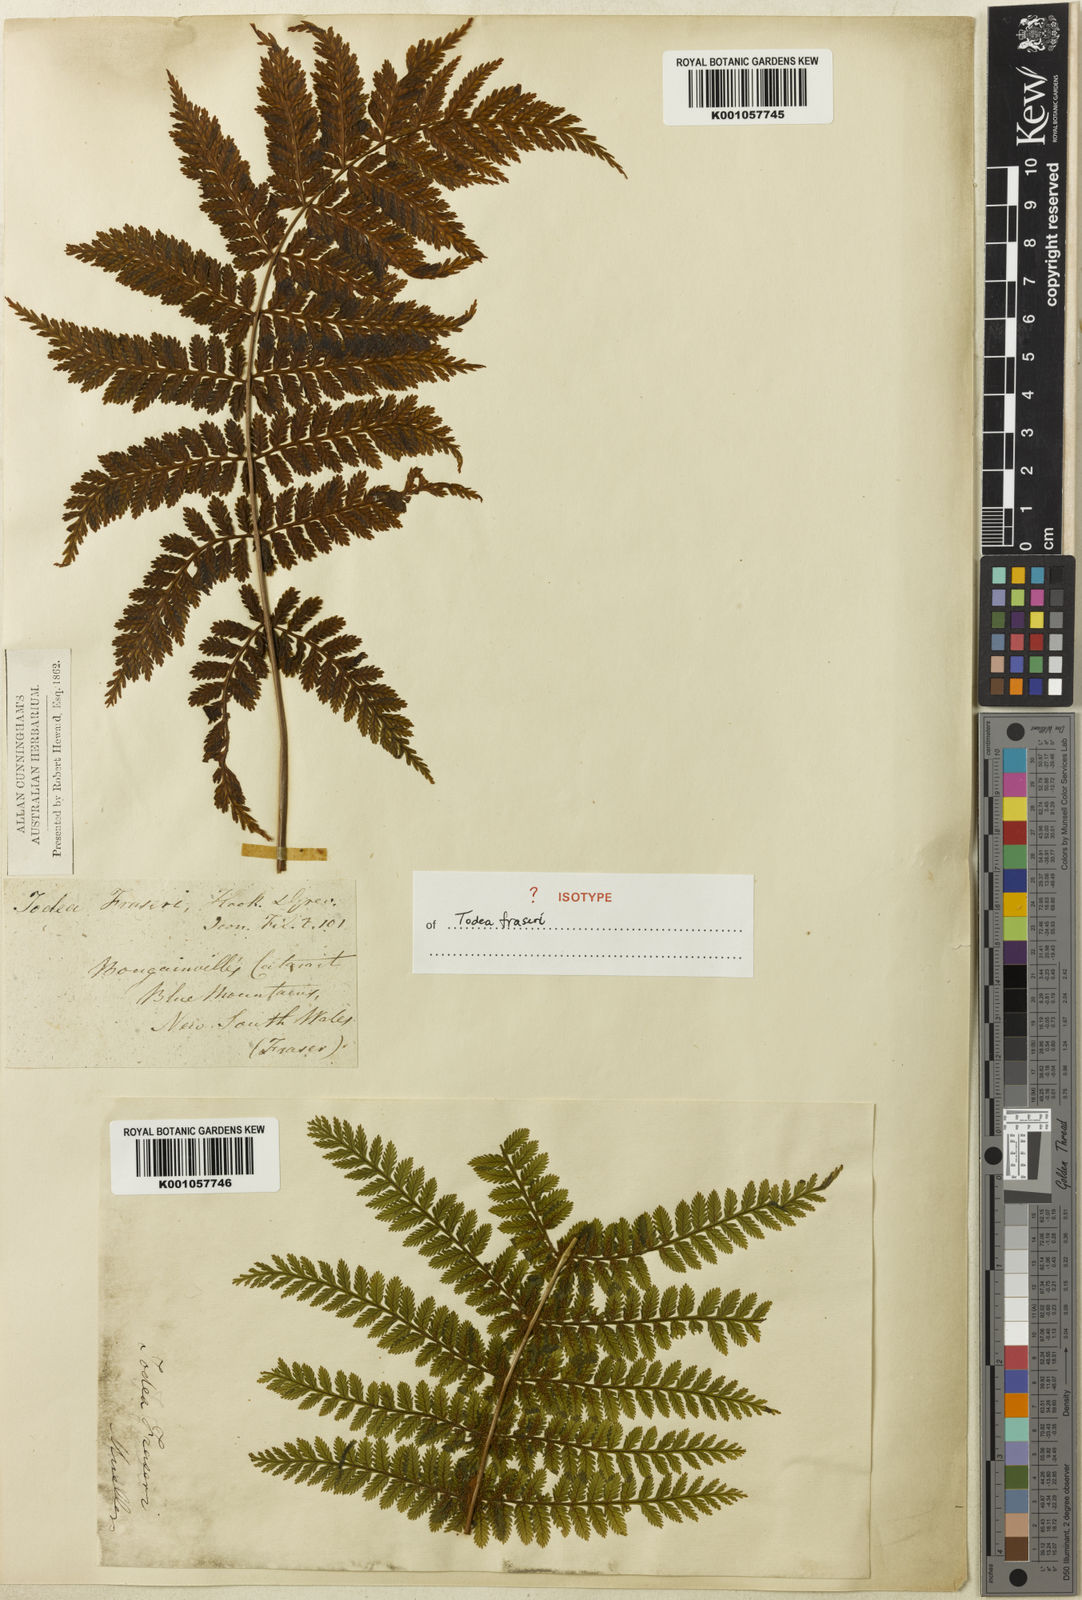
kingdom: Plantae
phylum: Tracheophyta
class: Polypodiopsida
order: Osmundales
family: Osmundaceae
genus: Leptopteris
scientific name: Leptopteris fraseri
